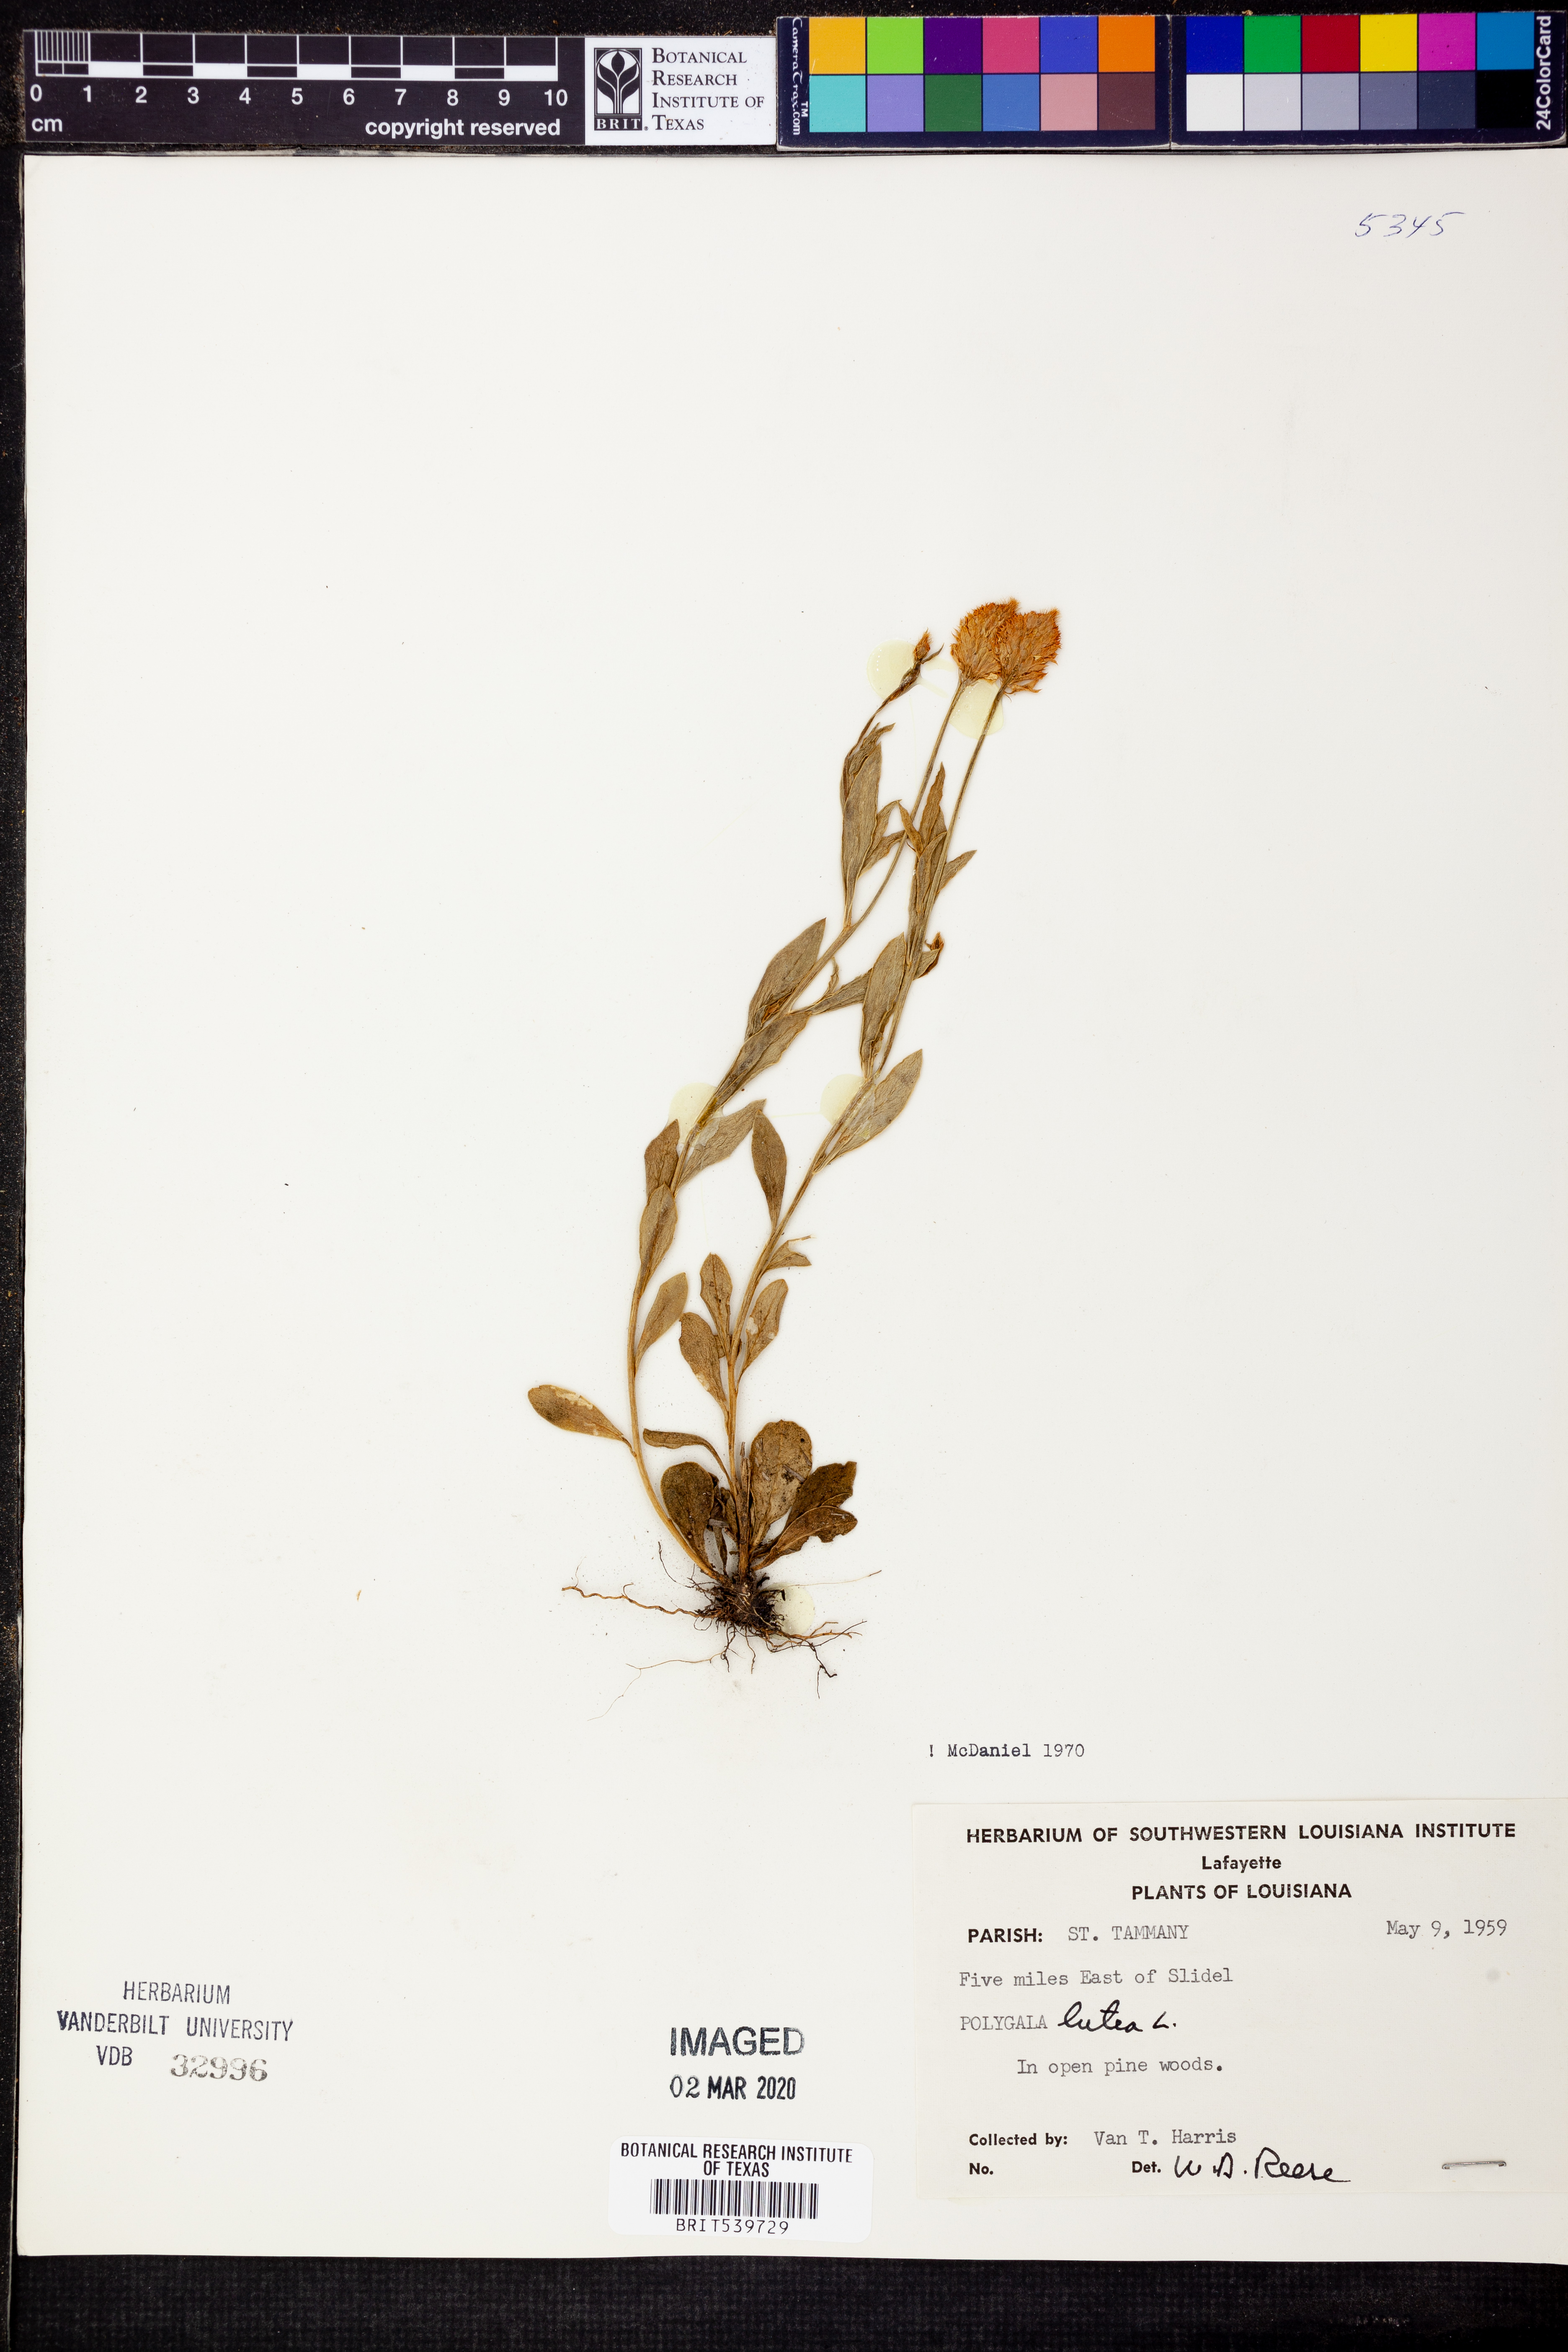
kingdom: Plantae
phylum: Tracheophyta
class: Magnoliopsida
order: Fabales
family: Polygalaceae
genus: Polygala
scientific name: Polygala lutea
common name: Orange milkwort
